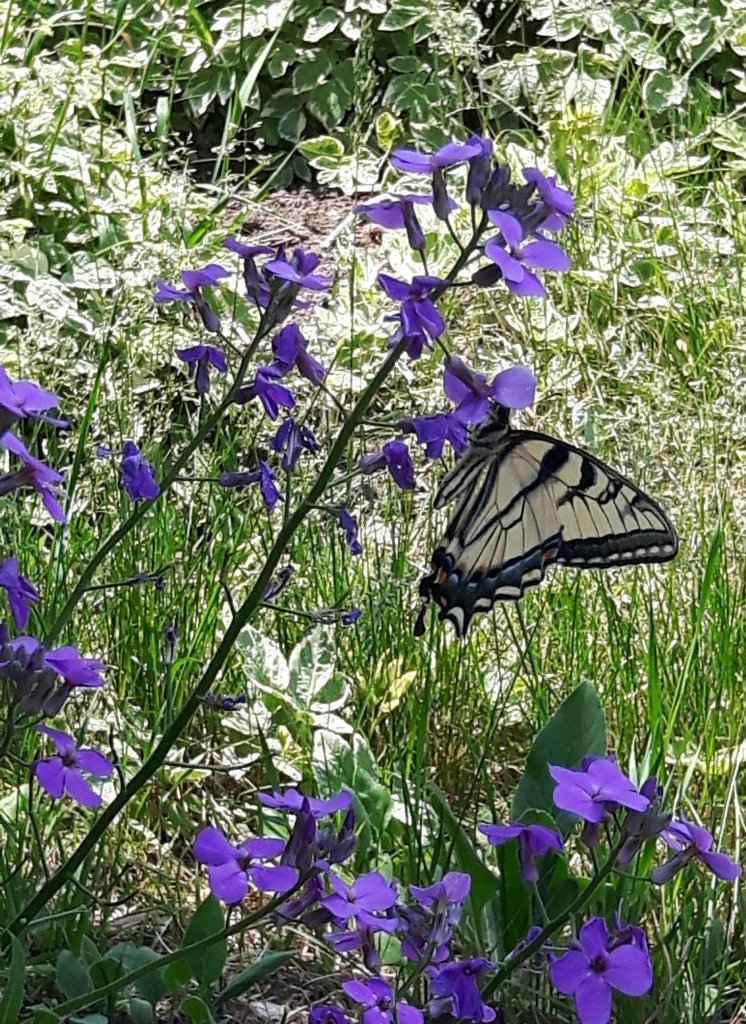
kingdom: Animalia
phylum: Arthropoda
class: Insecta
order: Lepidoptera
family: Papilionidae
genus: Pterourus
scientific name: Pterourus canadensis
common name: Canadian Tiger Swallowtail
